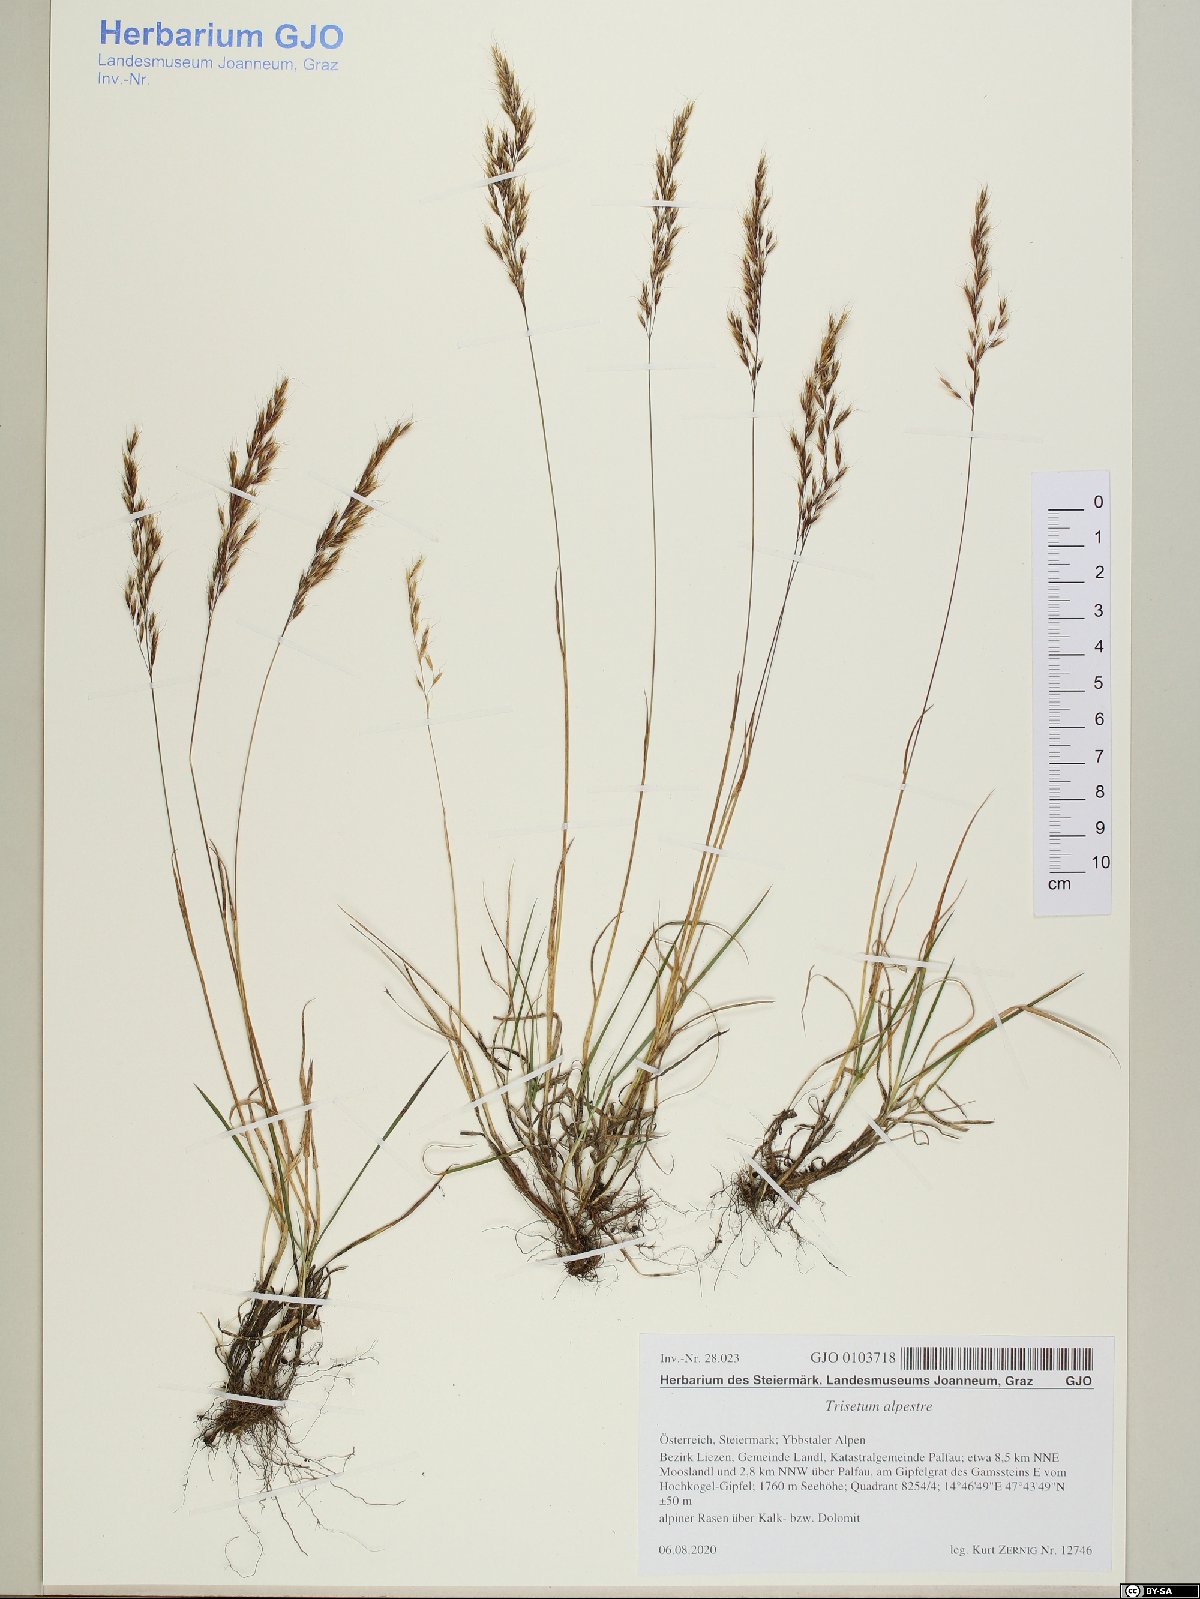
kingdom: Plantae
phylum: Tracheophyta
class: Liliopsida
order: Poales
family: Poaceae
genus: Trisetum
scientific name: Trisetum alpestre
